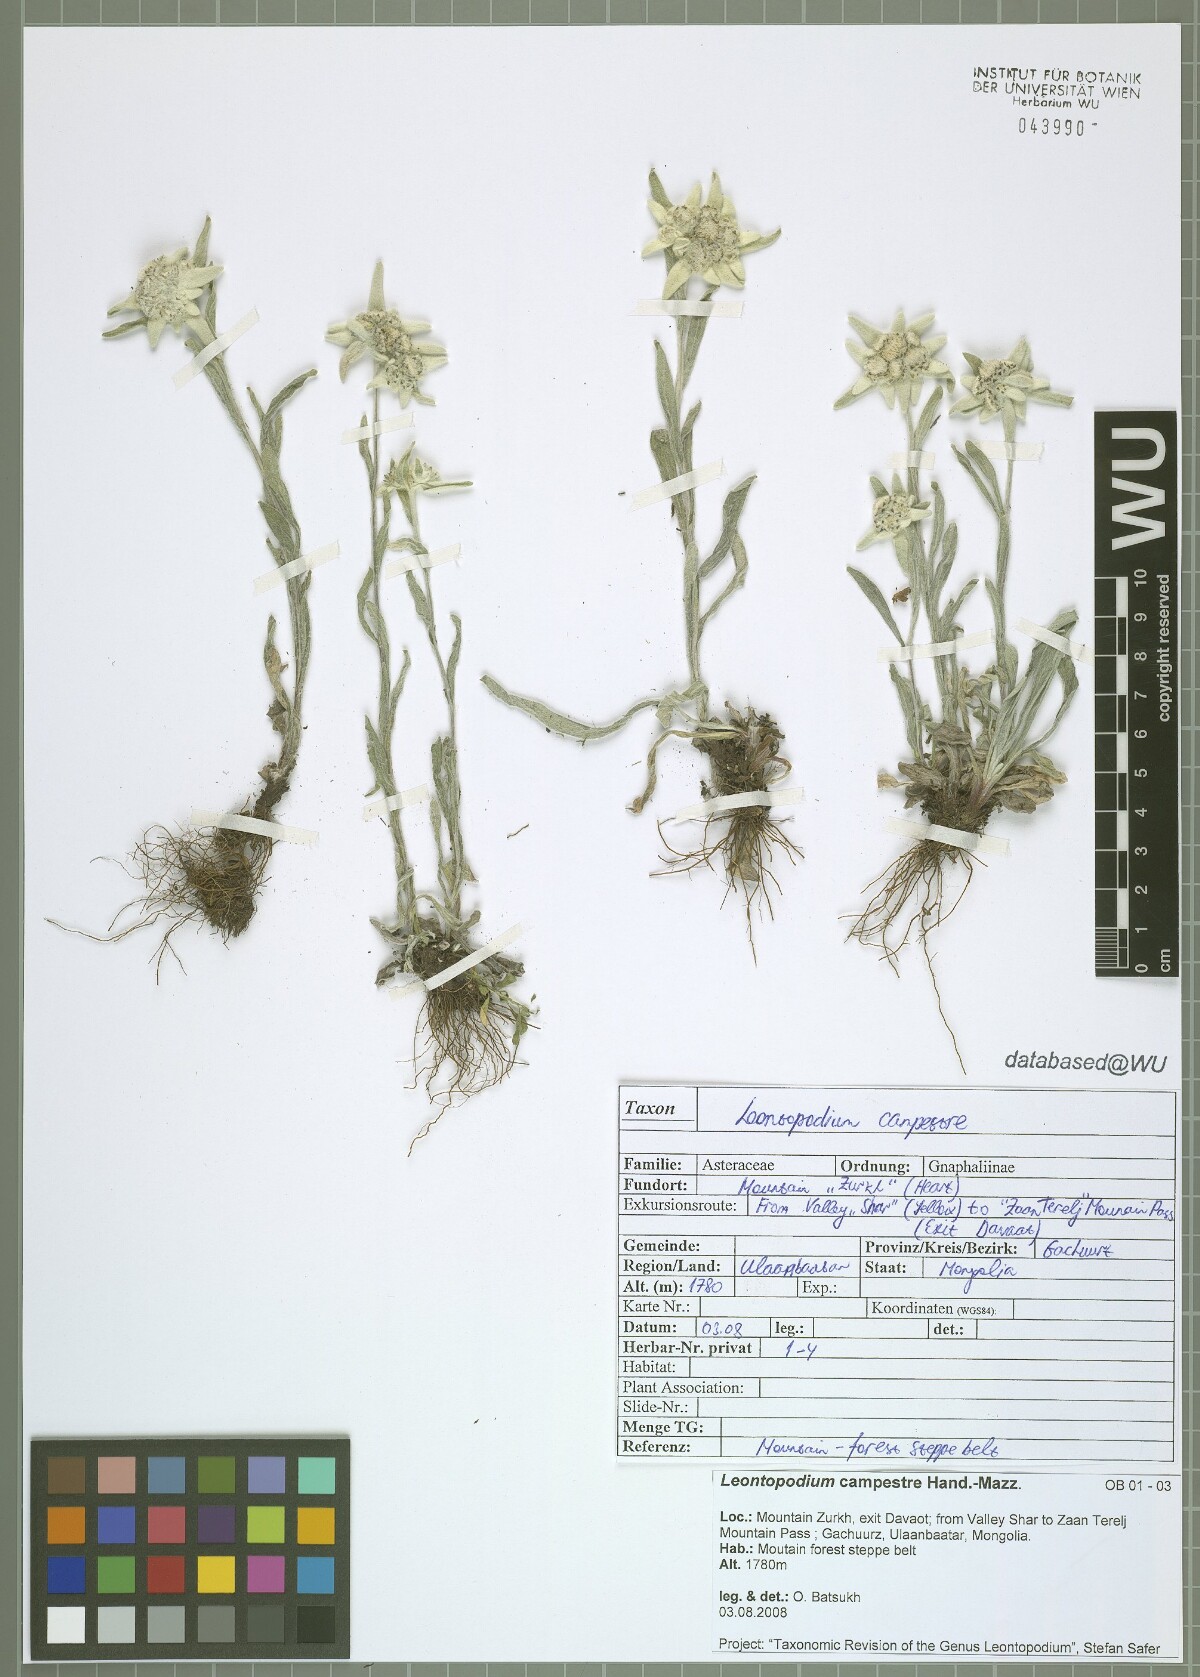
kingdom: Plantae
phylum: Tracheophyta
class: Magnoliopsida
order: Asterales
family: Asteraceae
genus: Leontopodium
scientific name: Leontopodium campestre
